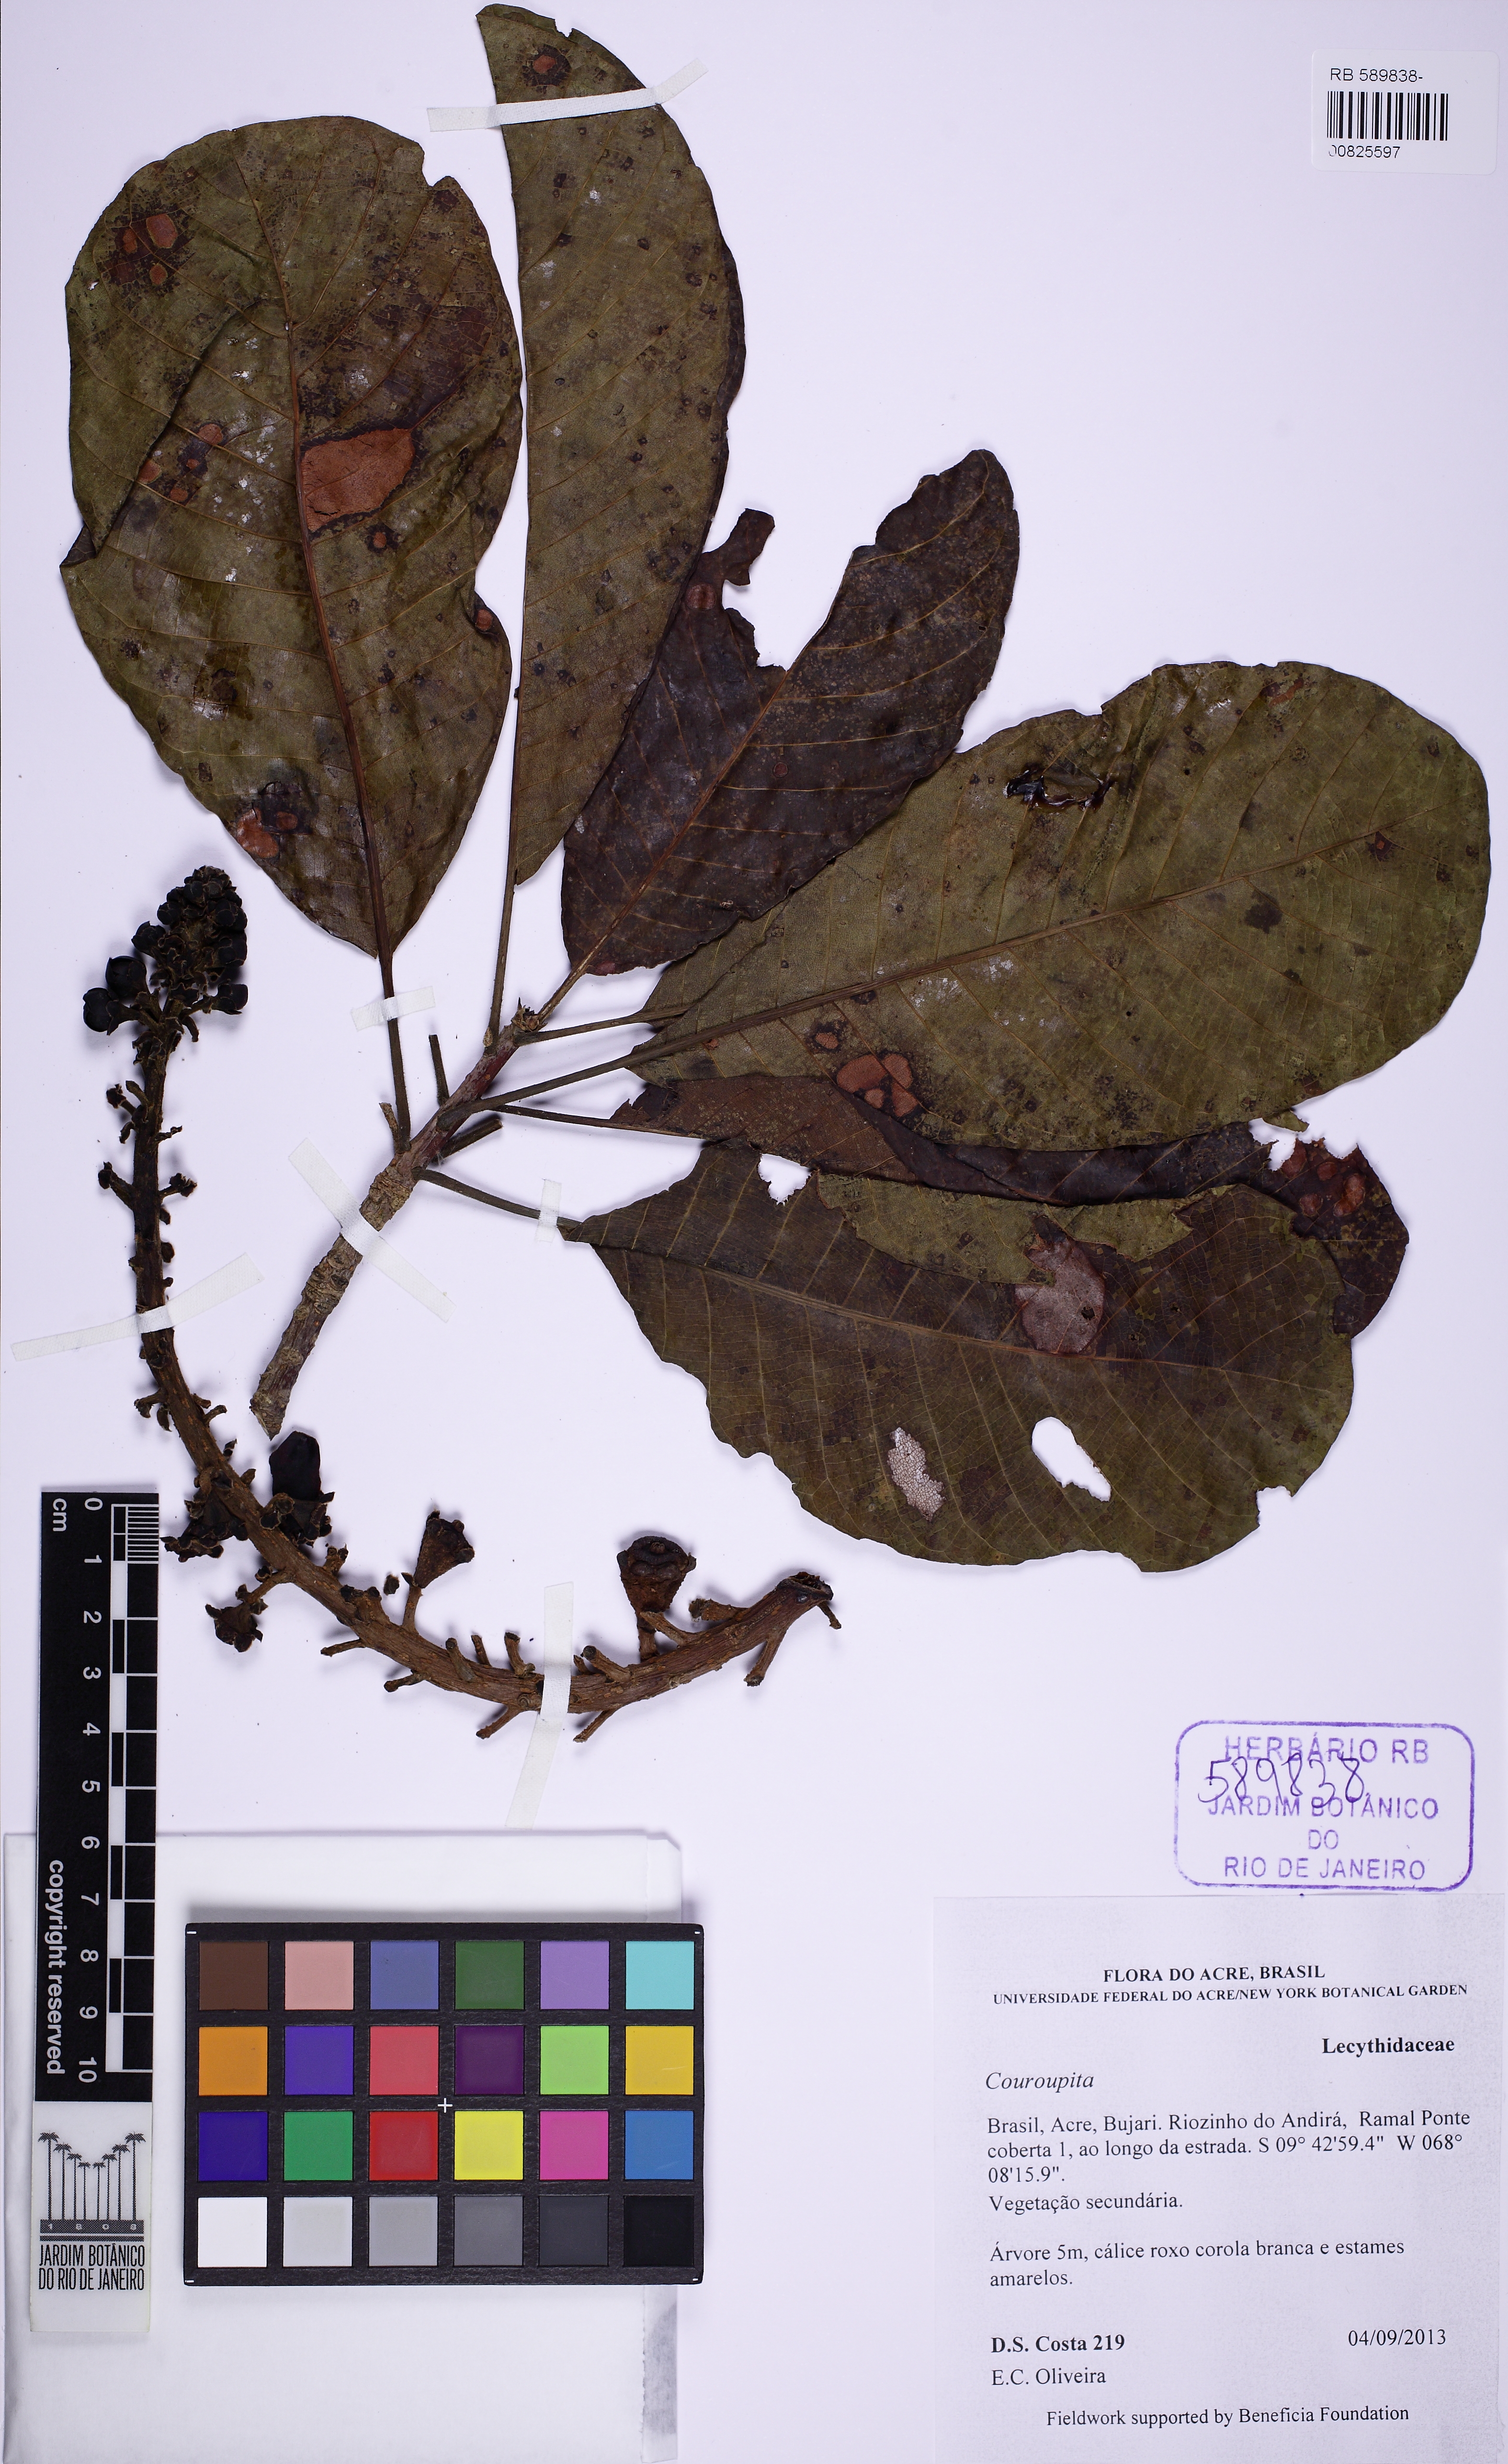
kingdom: Plantae
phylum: Tracheophyta
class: Magnoliopsida
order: Ericales
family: Lecythidaceae
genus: Couroupita
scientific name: Couroupita
